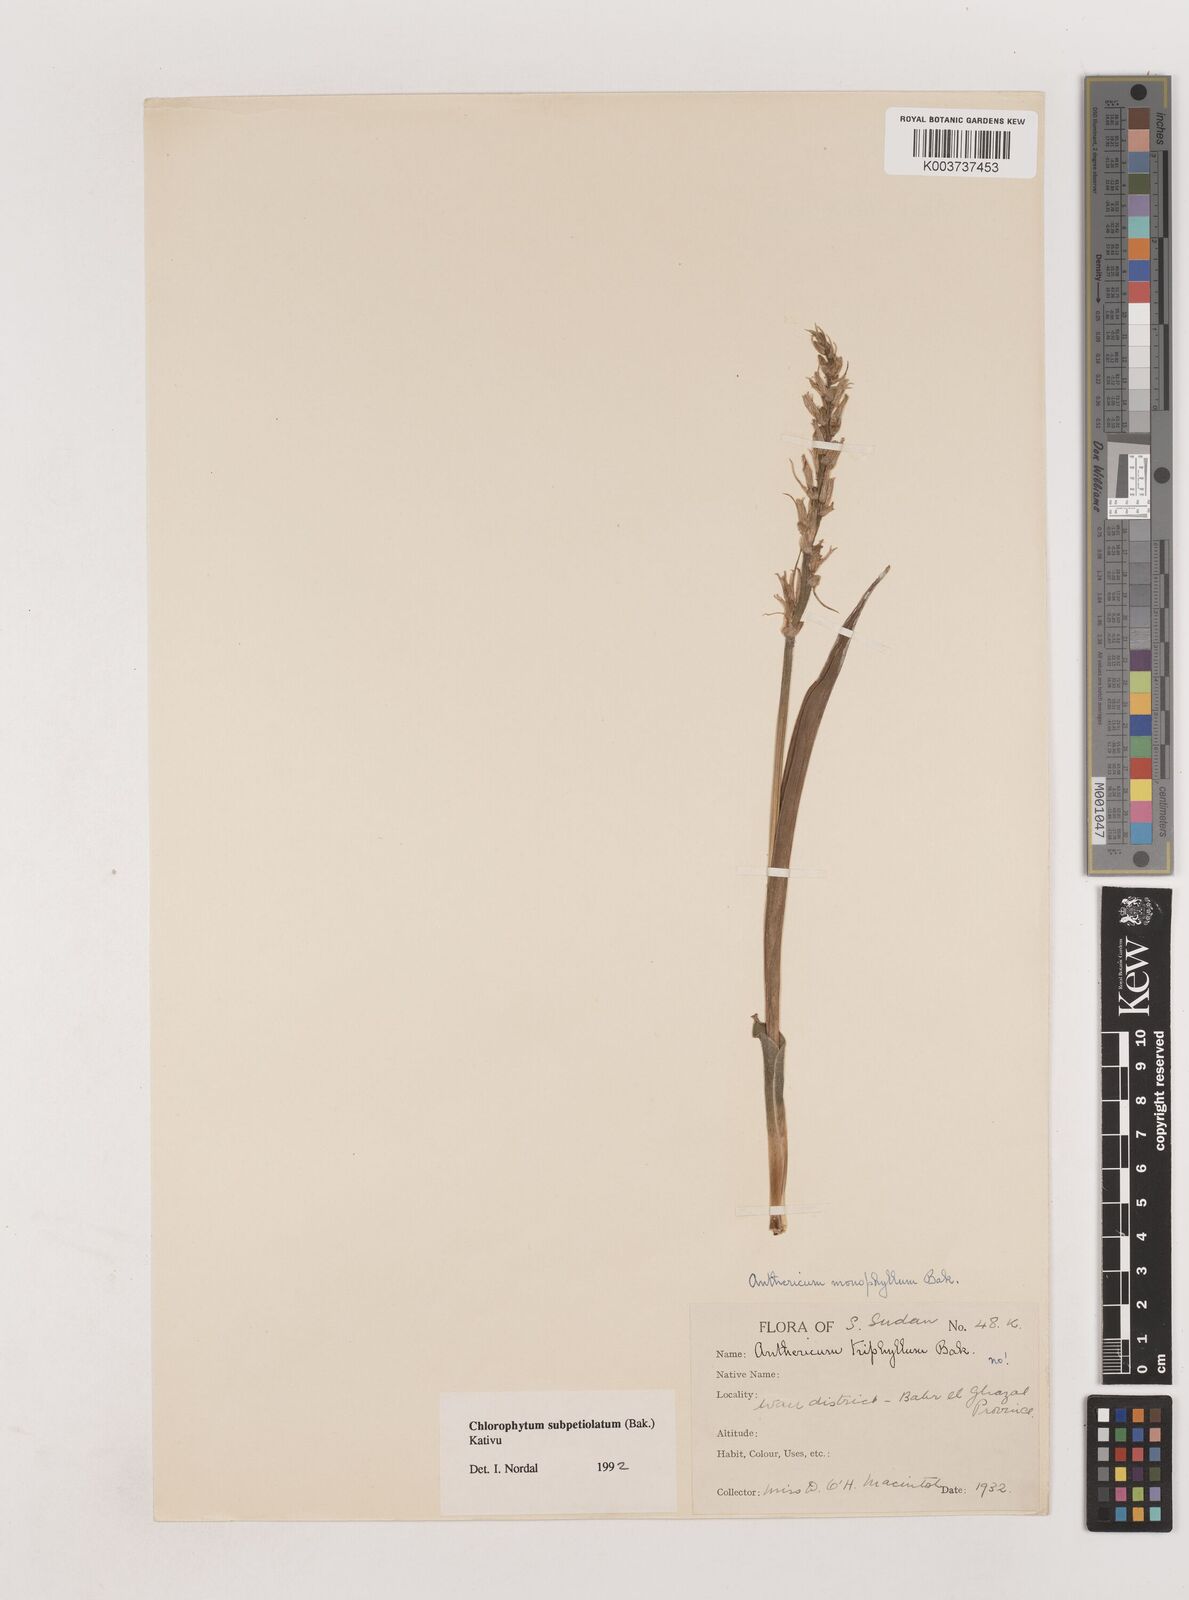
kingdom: Plantae
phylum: Tracheophyta
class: Liliopsida
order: Asparagales
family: Asparagaceae
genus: Chlorophytum
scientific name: Chlorophytum subpetiolatum
